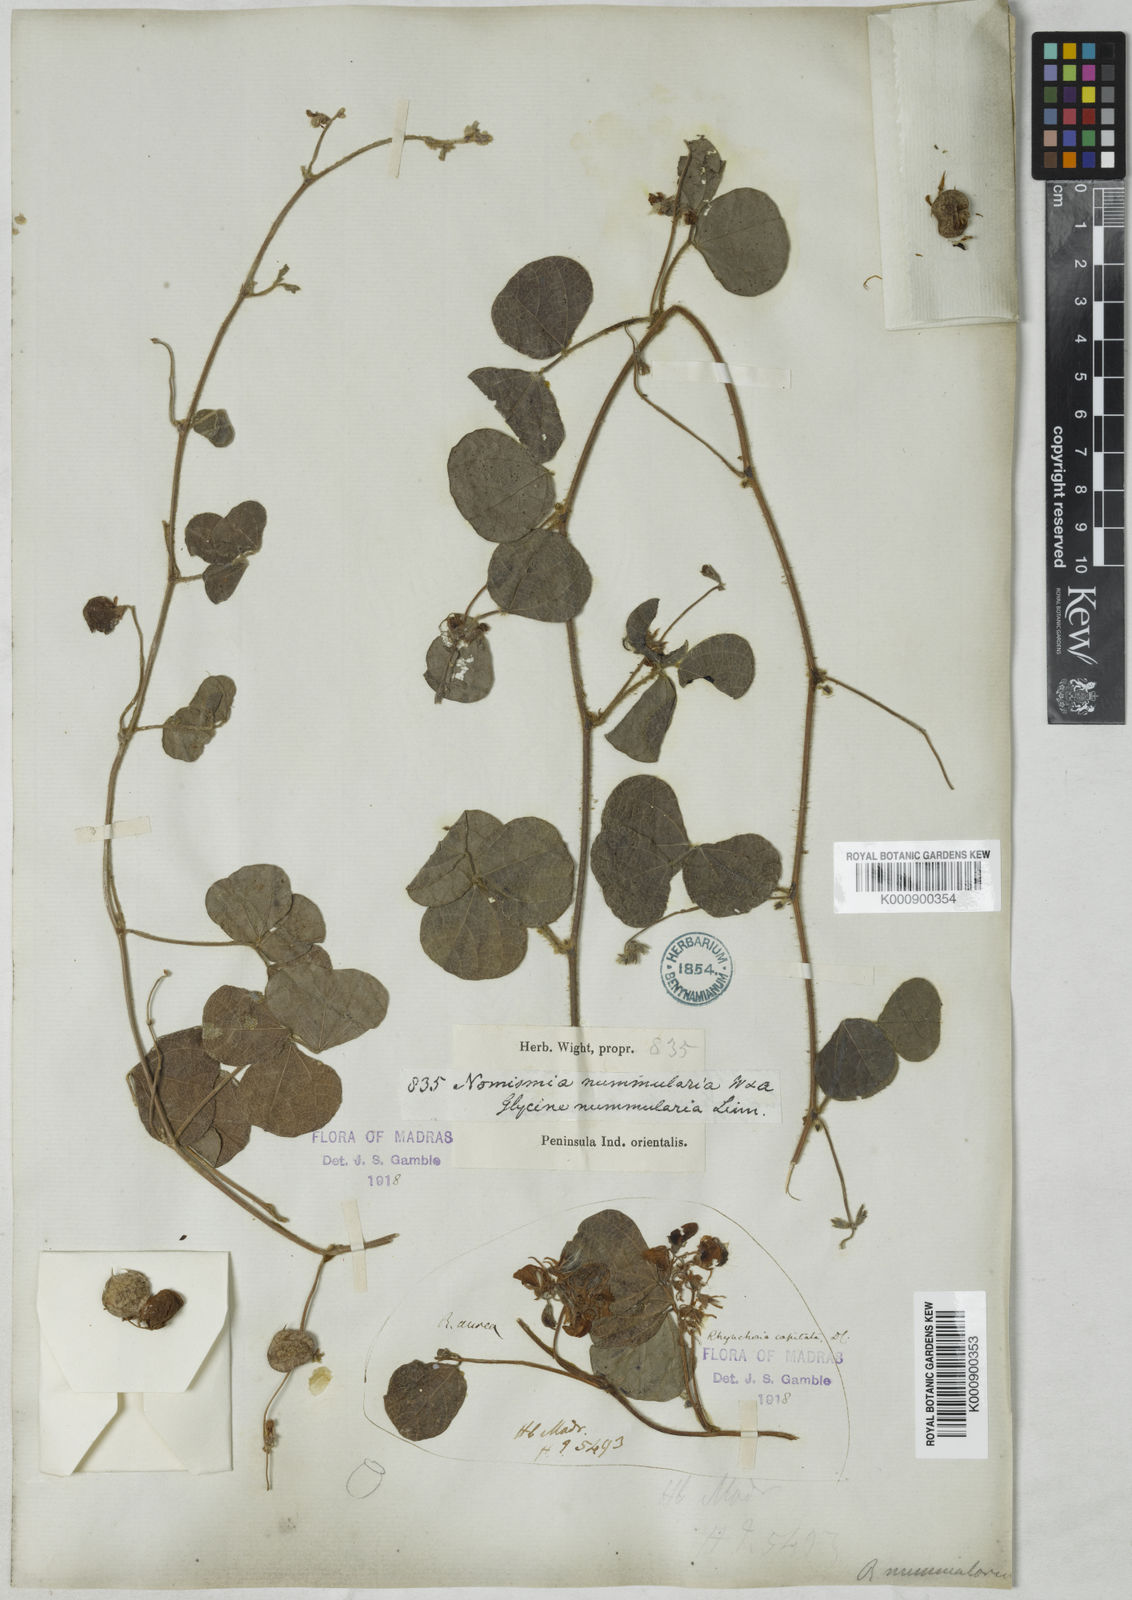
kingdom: Plantae
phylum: Tracheophyta
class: Magnoliopsida
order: Fabales
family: Fabaceae
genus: Rhynchosia
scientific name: Rhynchosia capitata
